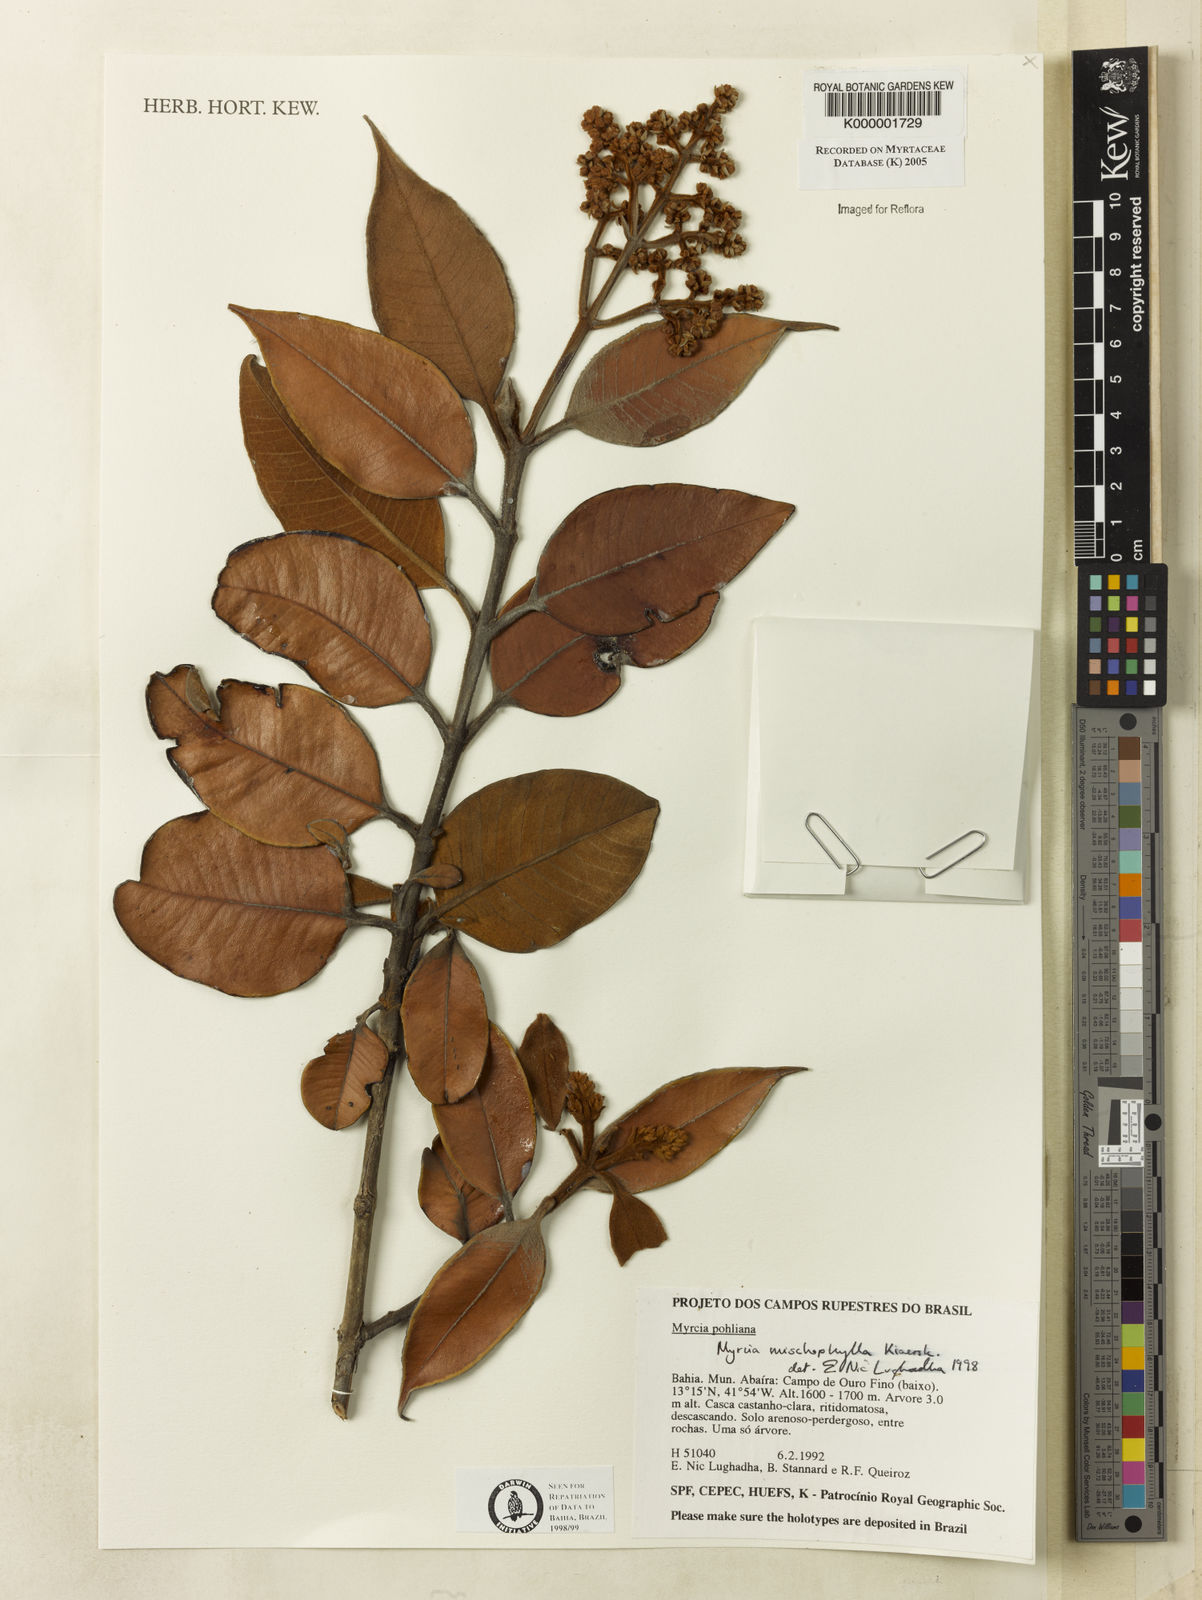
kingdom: Plantae
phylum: Tracheophyta
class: Magnoliopsida
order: Myrtales
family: Myrtaceae
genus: Myrcia
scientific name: Myrcia mischophylla
